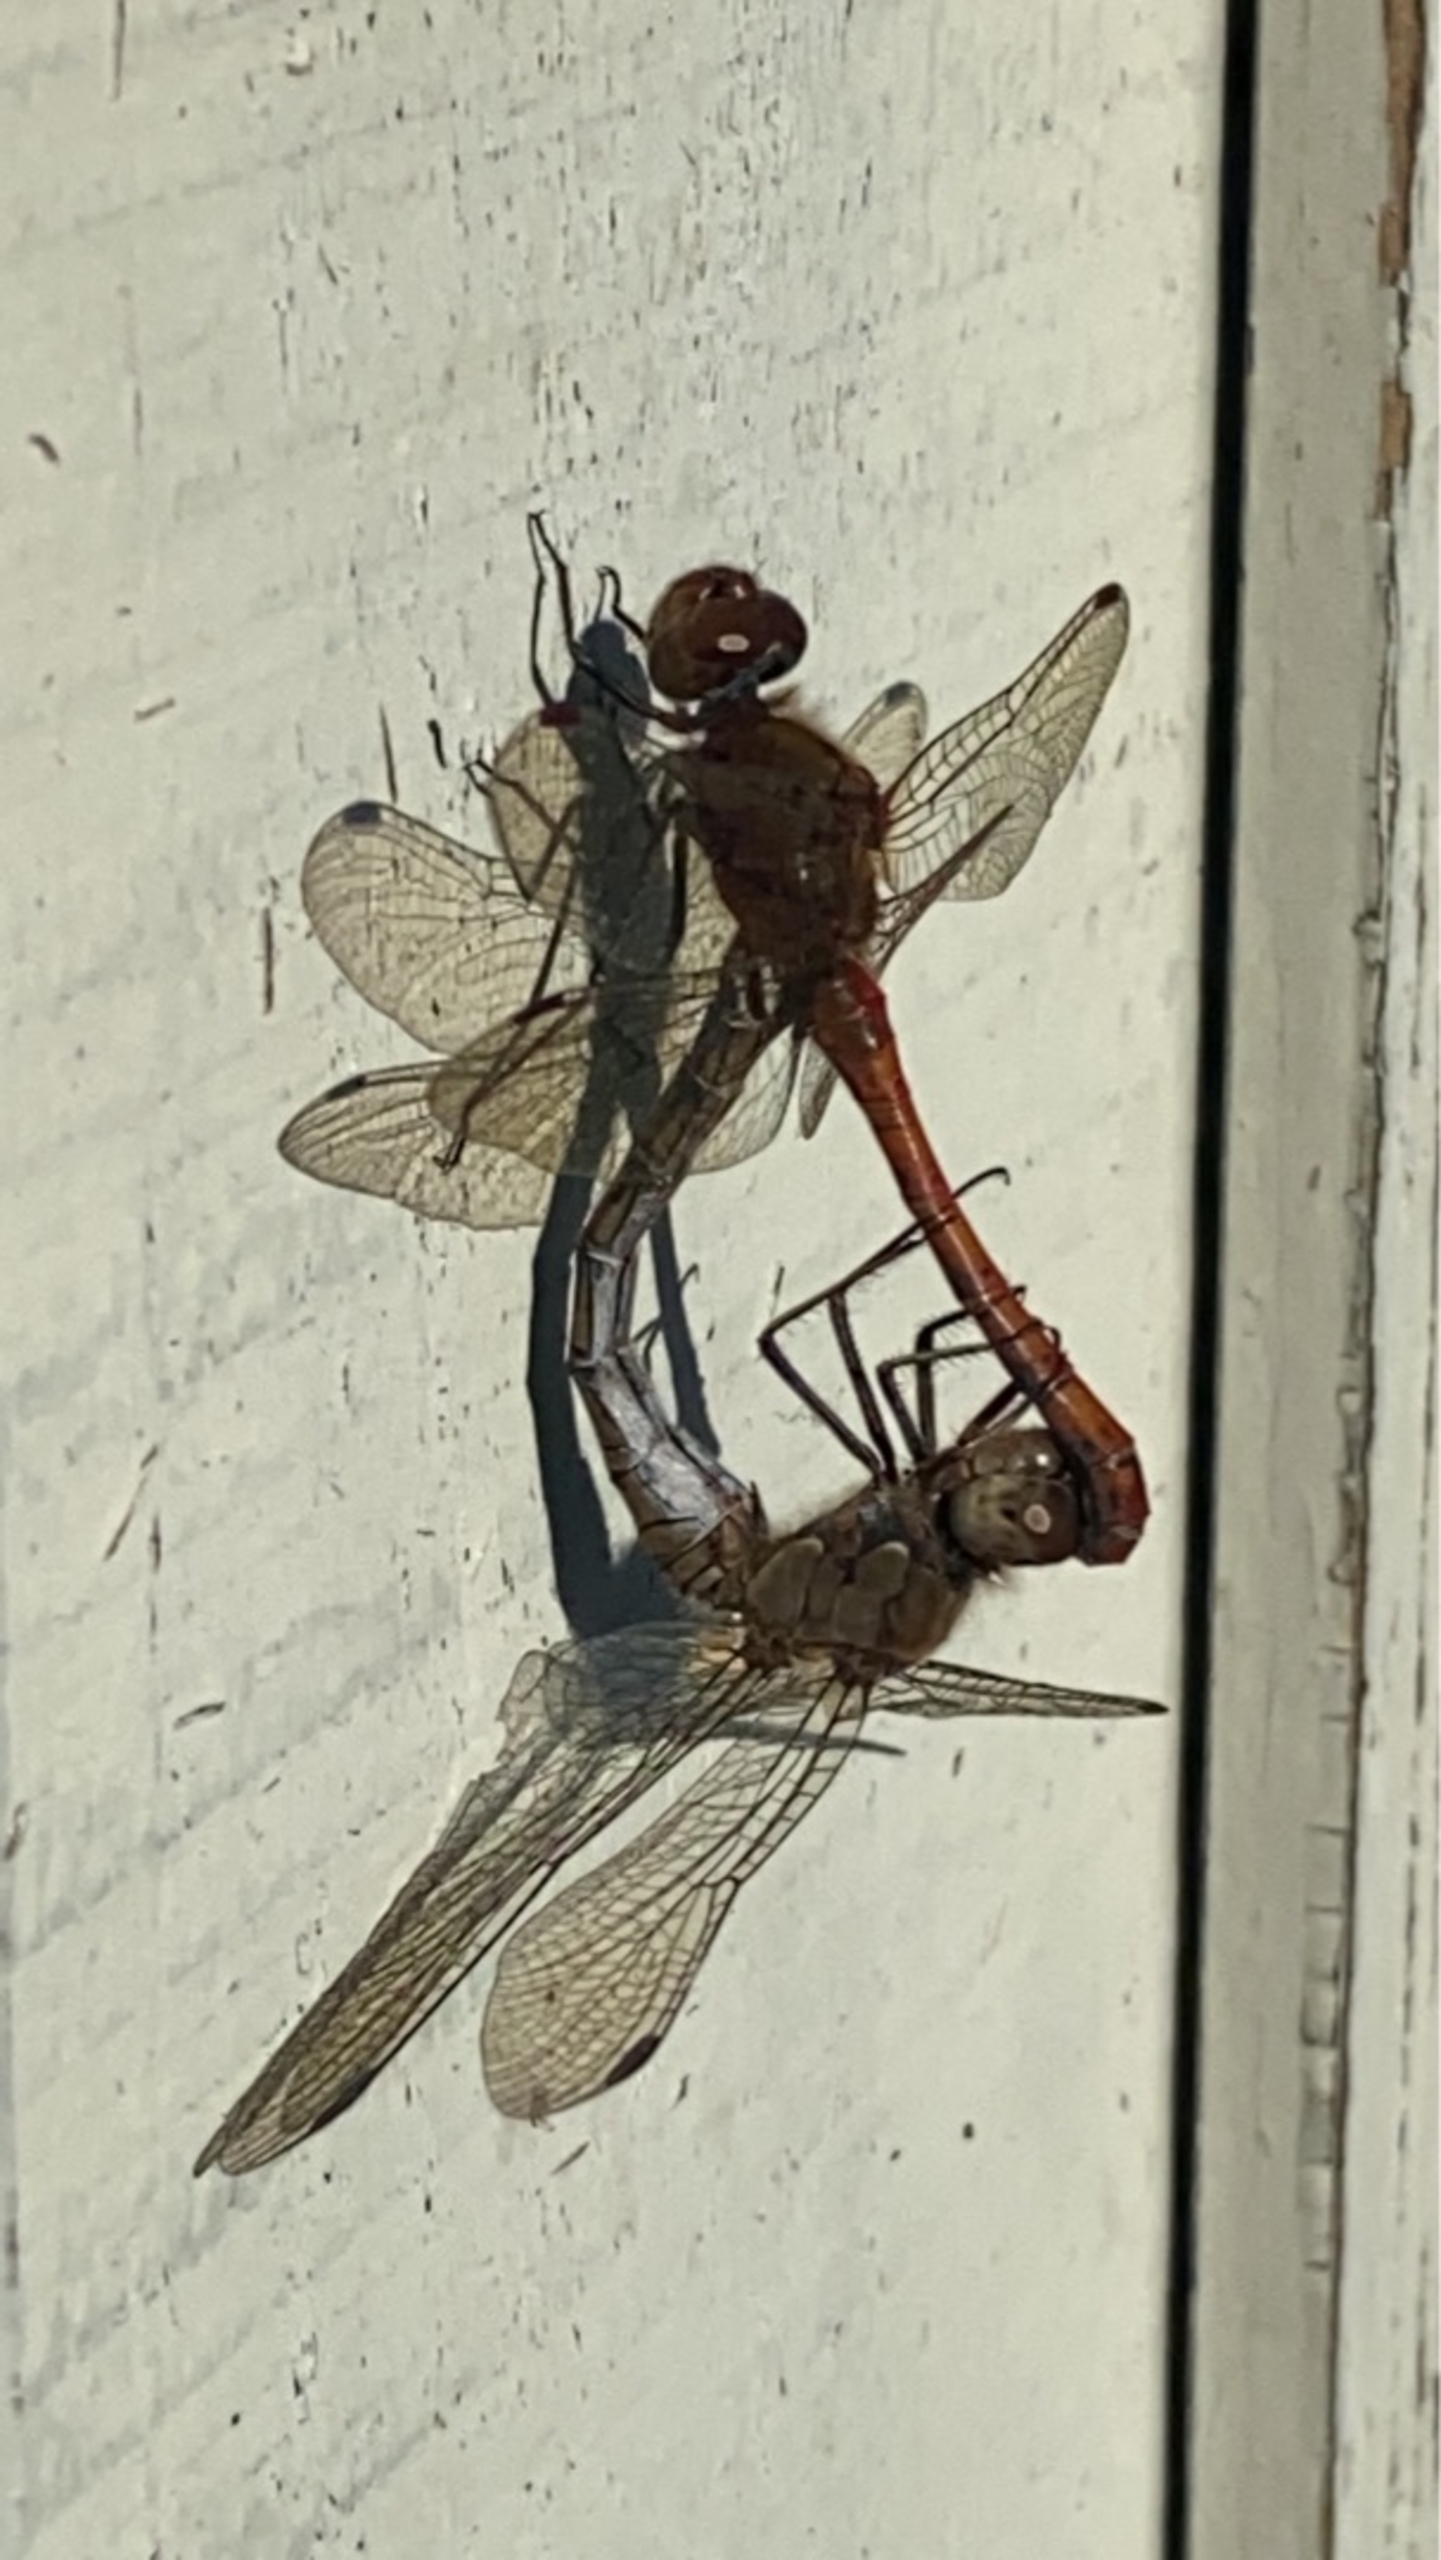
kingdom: Animalia
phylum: Arthropoda
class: Insecta
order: Odonata
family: Libellulidae
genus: Sympetrum
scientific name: Sympetrum striolatum
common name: Stor hedelibel
